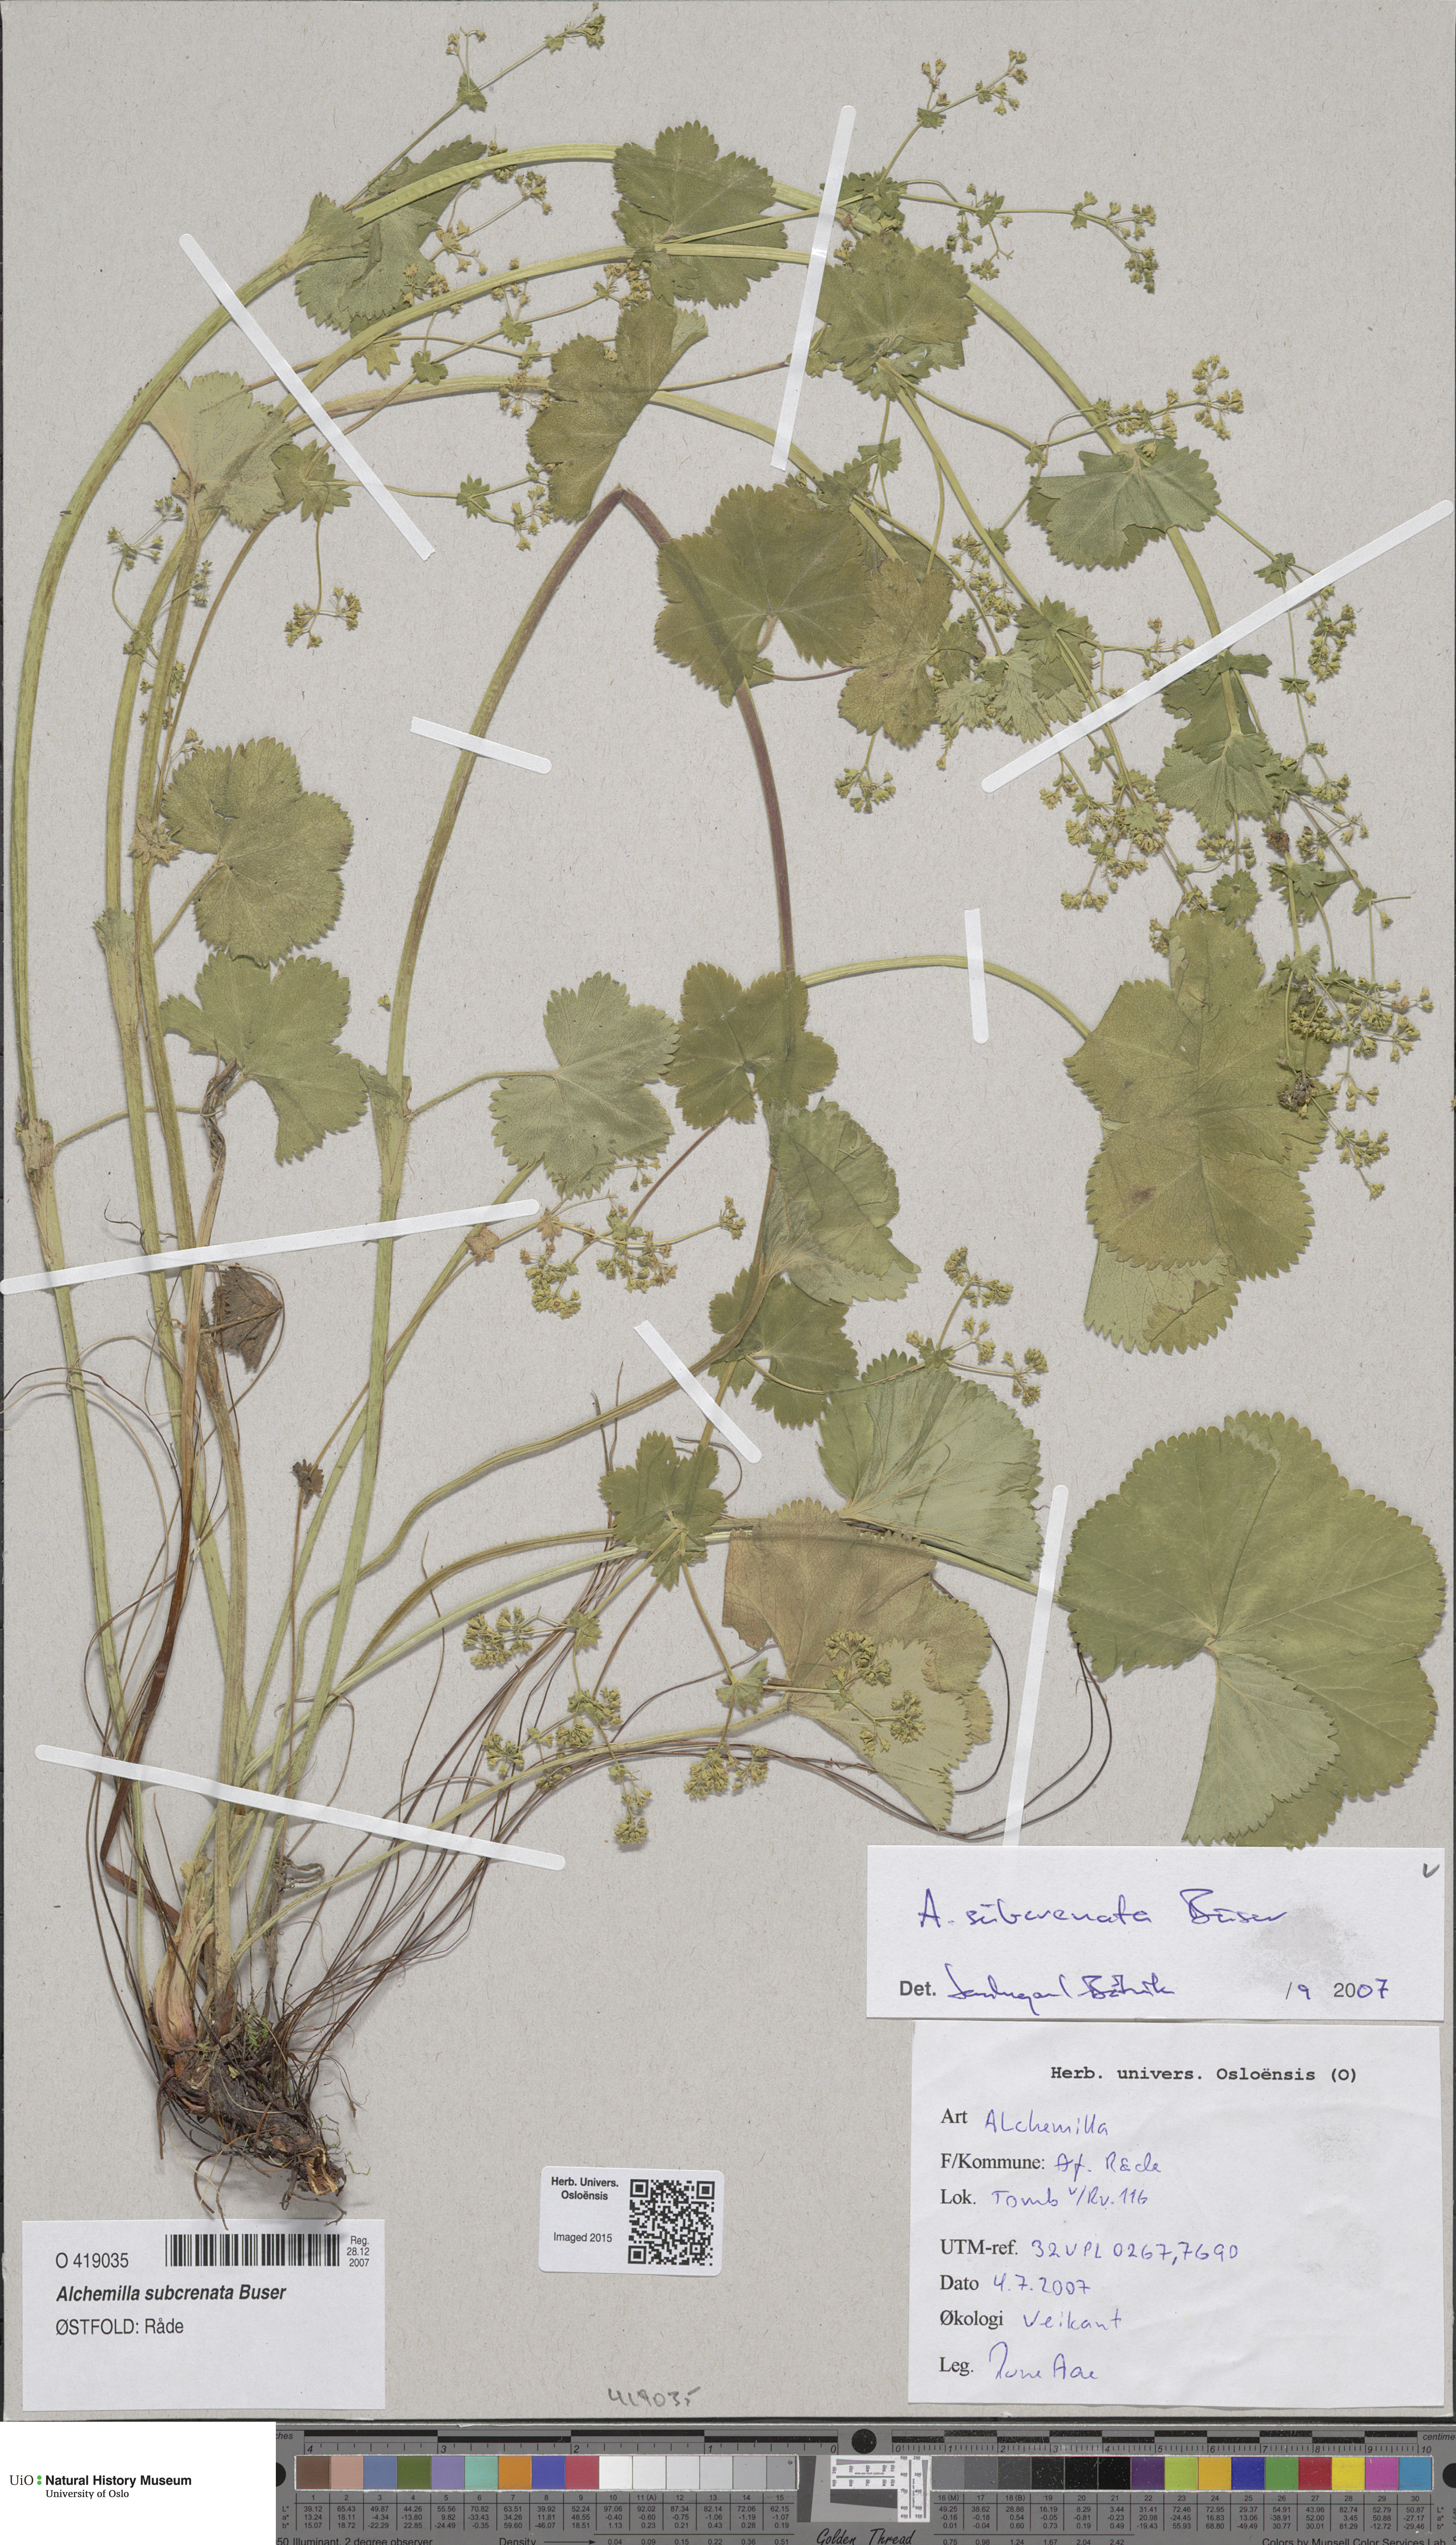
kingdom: Plantae
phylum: Tracheophyta
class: Magnoliopsida
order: Rosales
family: Rosaceae
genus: Alchemilla
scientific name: Alchemilla subcrenata
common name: Broadtooth lady's mantle
